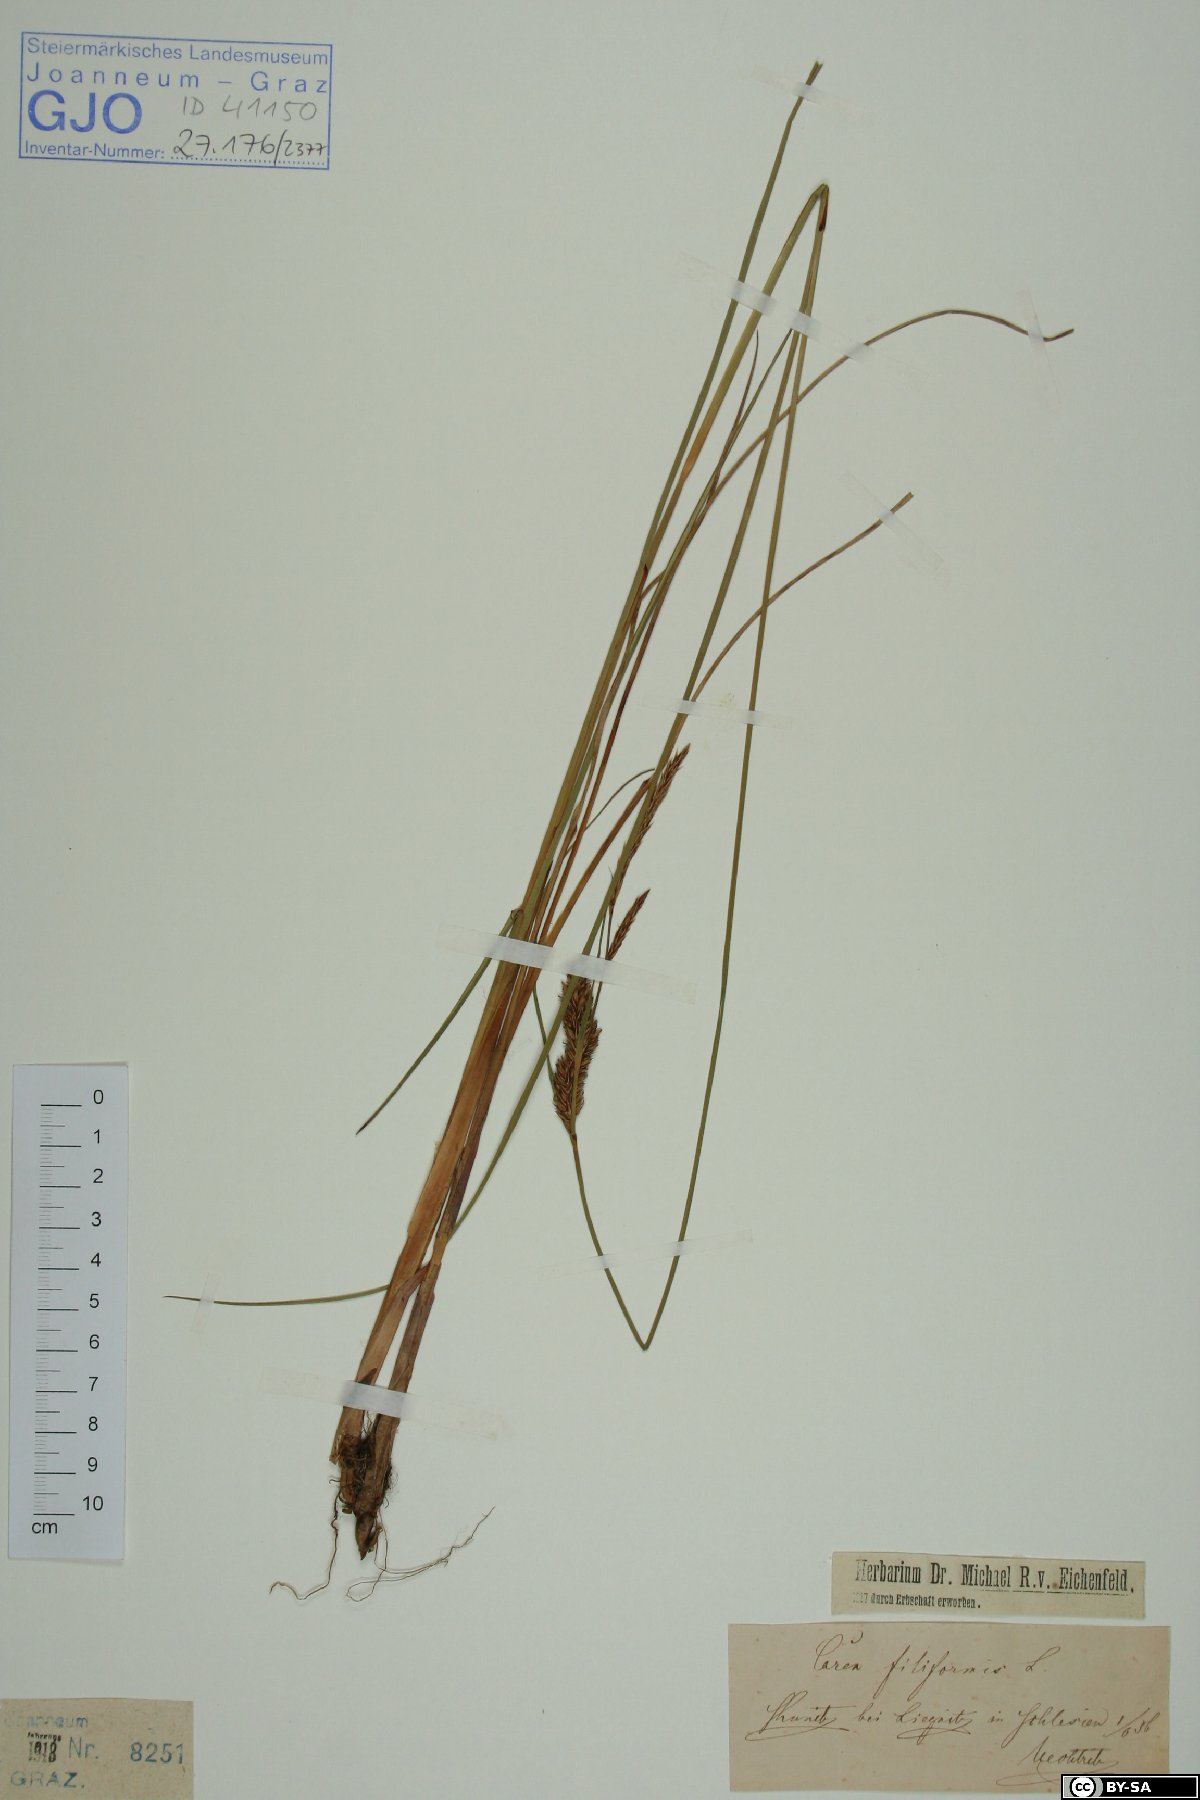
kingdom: Plantae
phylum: Tracheophyta
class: Liliopsida
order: Poales
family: Cyperaceae
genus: Carex
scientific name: Carex montana
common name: Soft-leaved sedge
